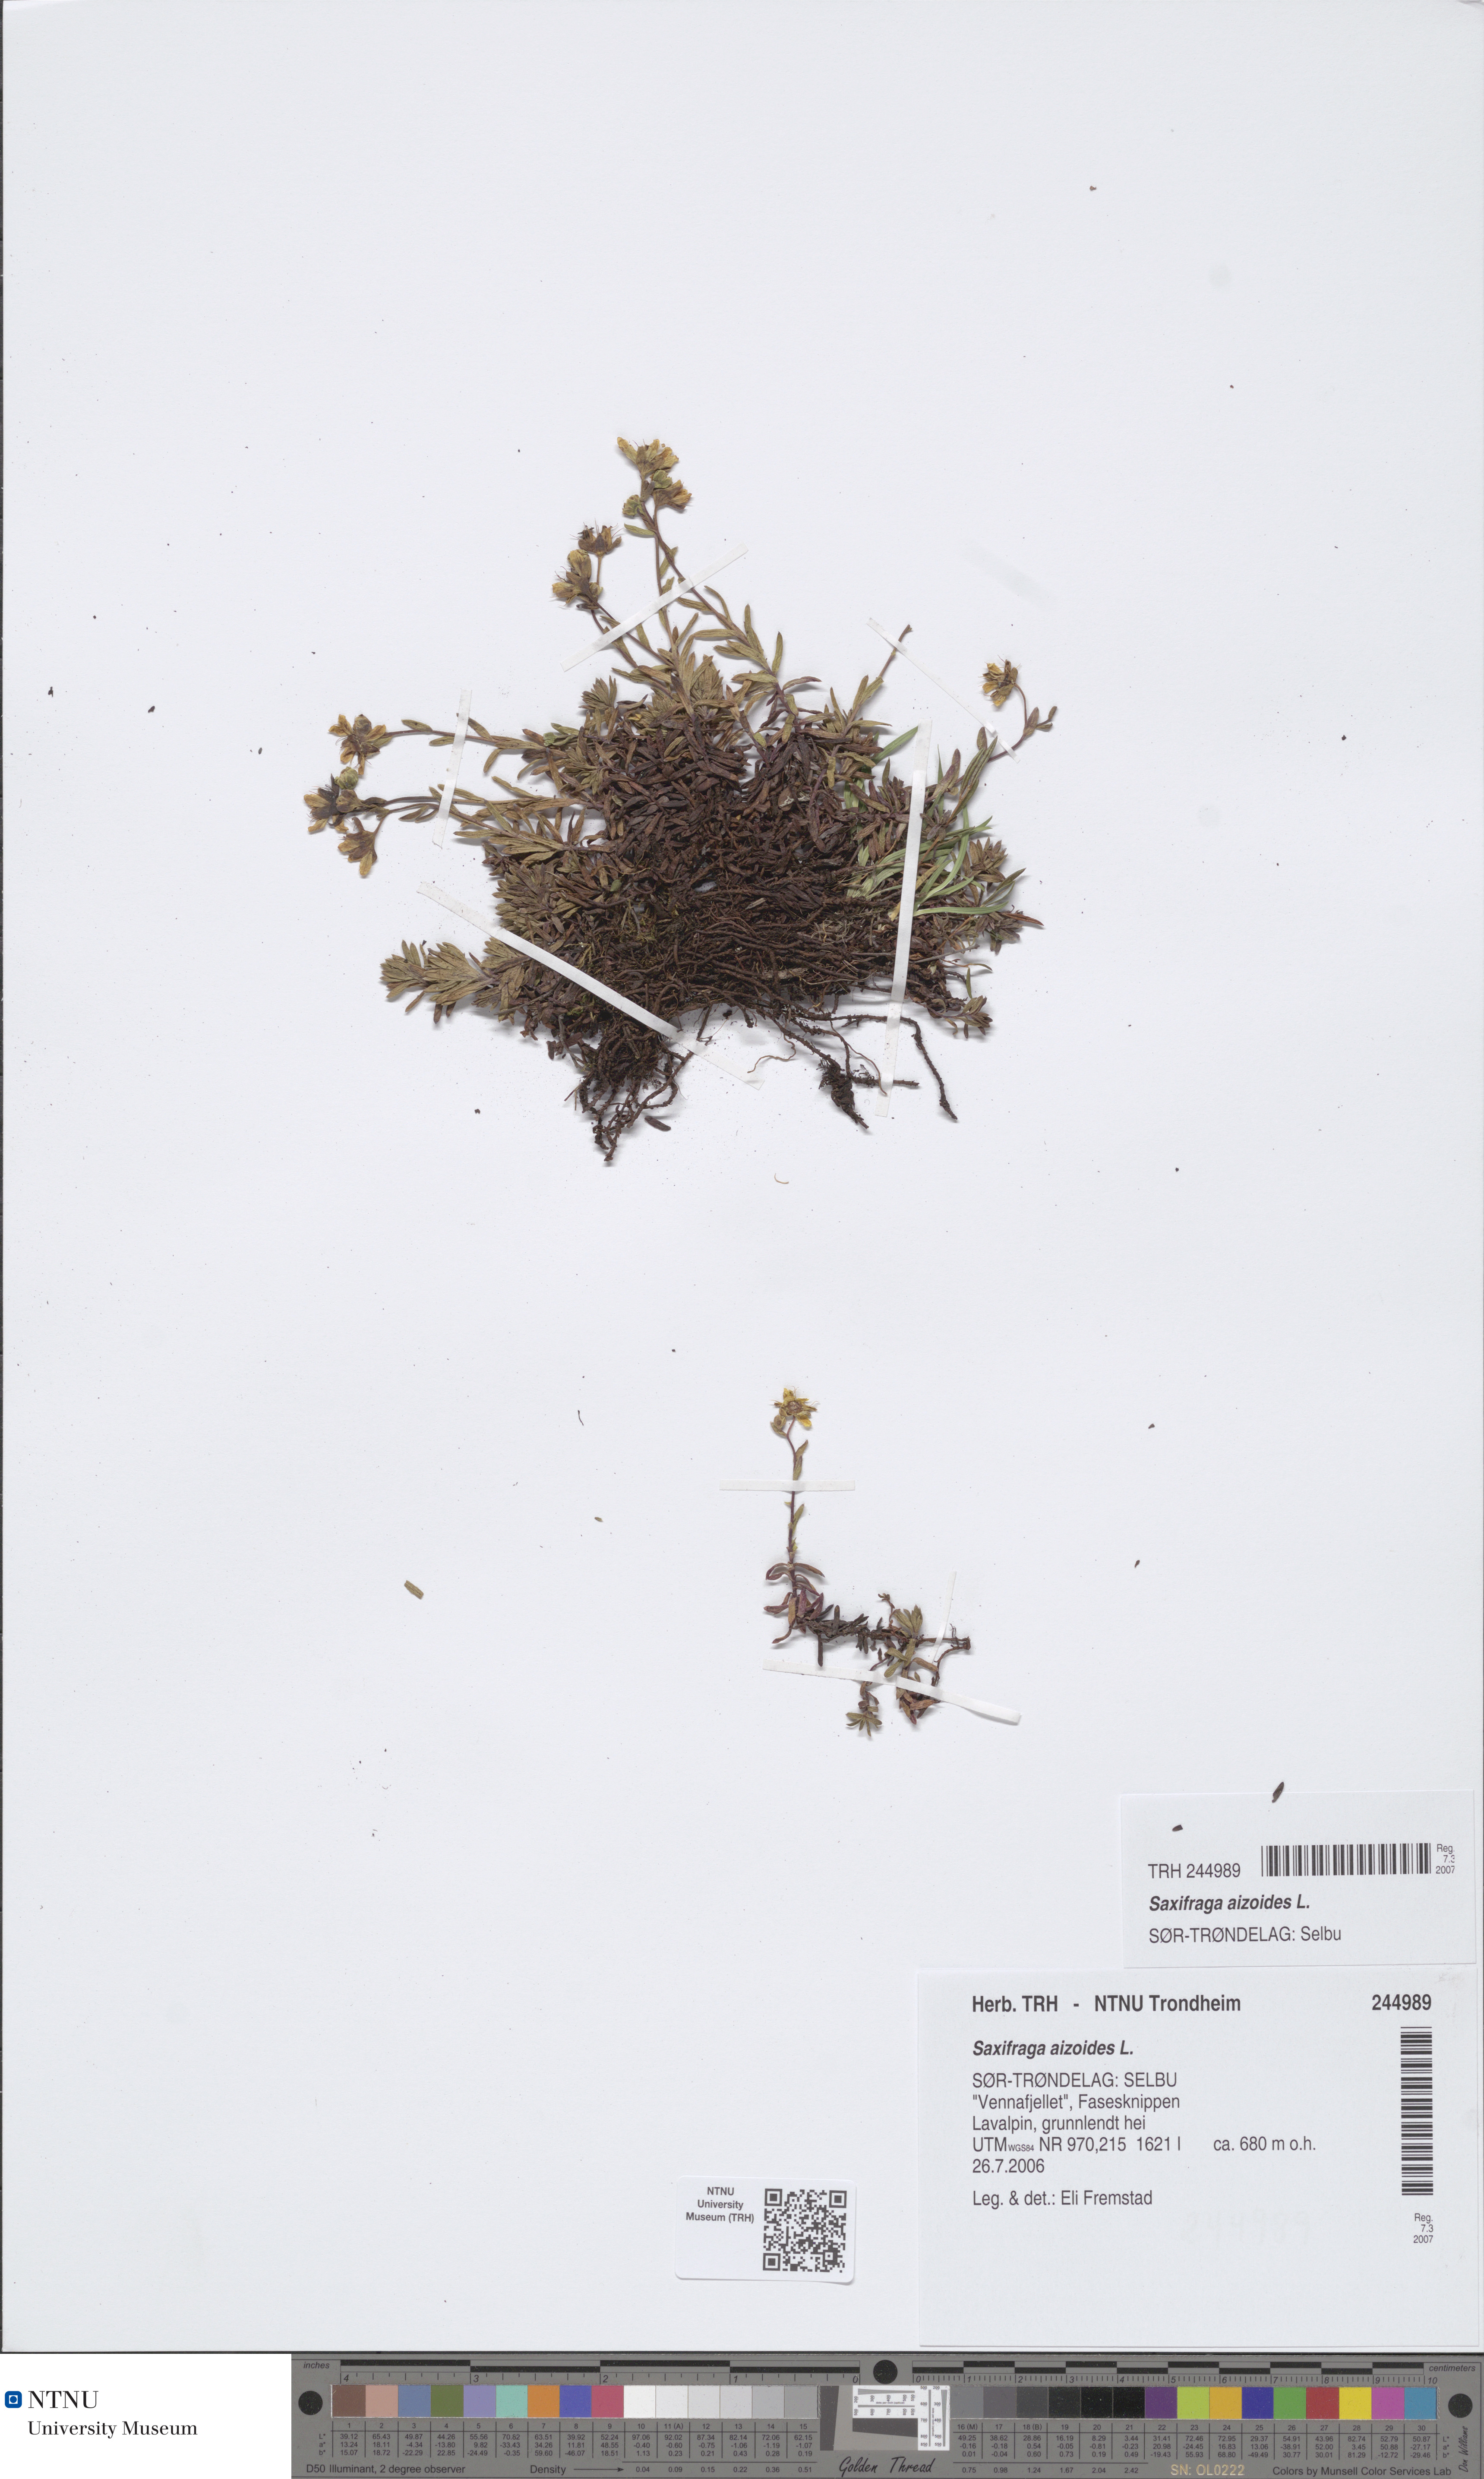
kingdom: Plantae
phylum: Tracheophyta
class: Magnoliopsida
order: Saxifragales
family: Saxifragaceae
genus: Saxifraga
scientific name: Saxifraga aizoides
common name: Yellow mountain saxifrage
